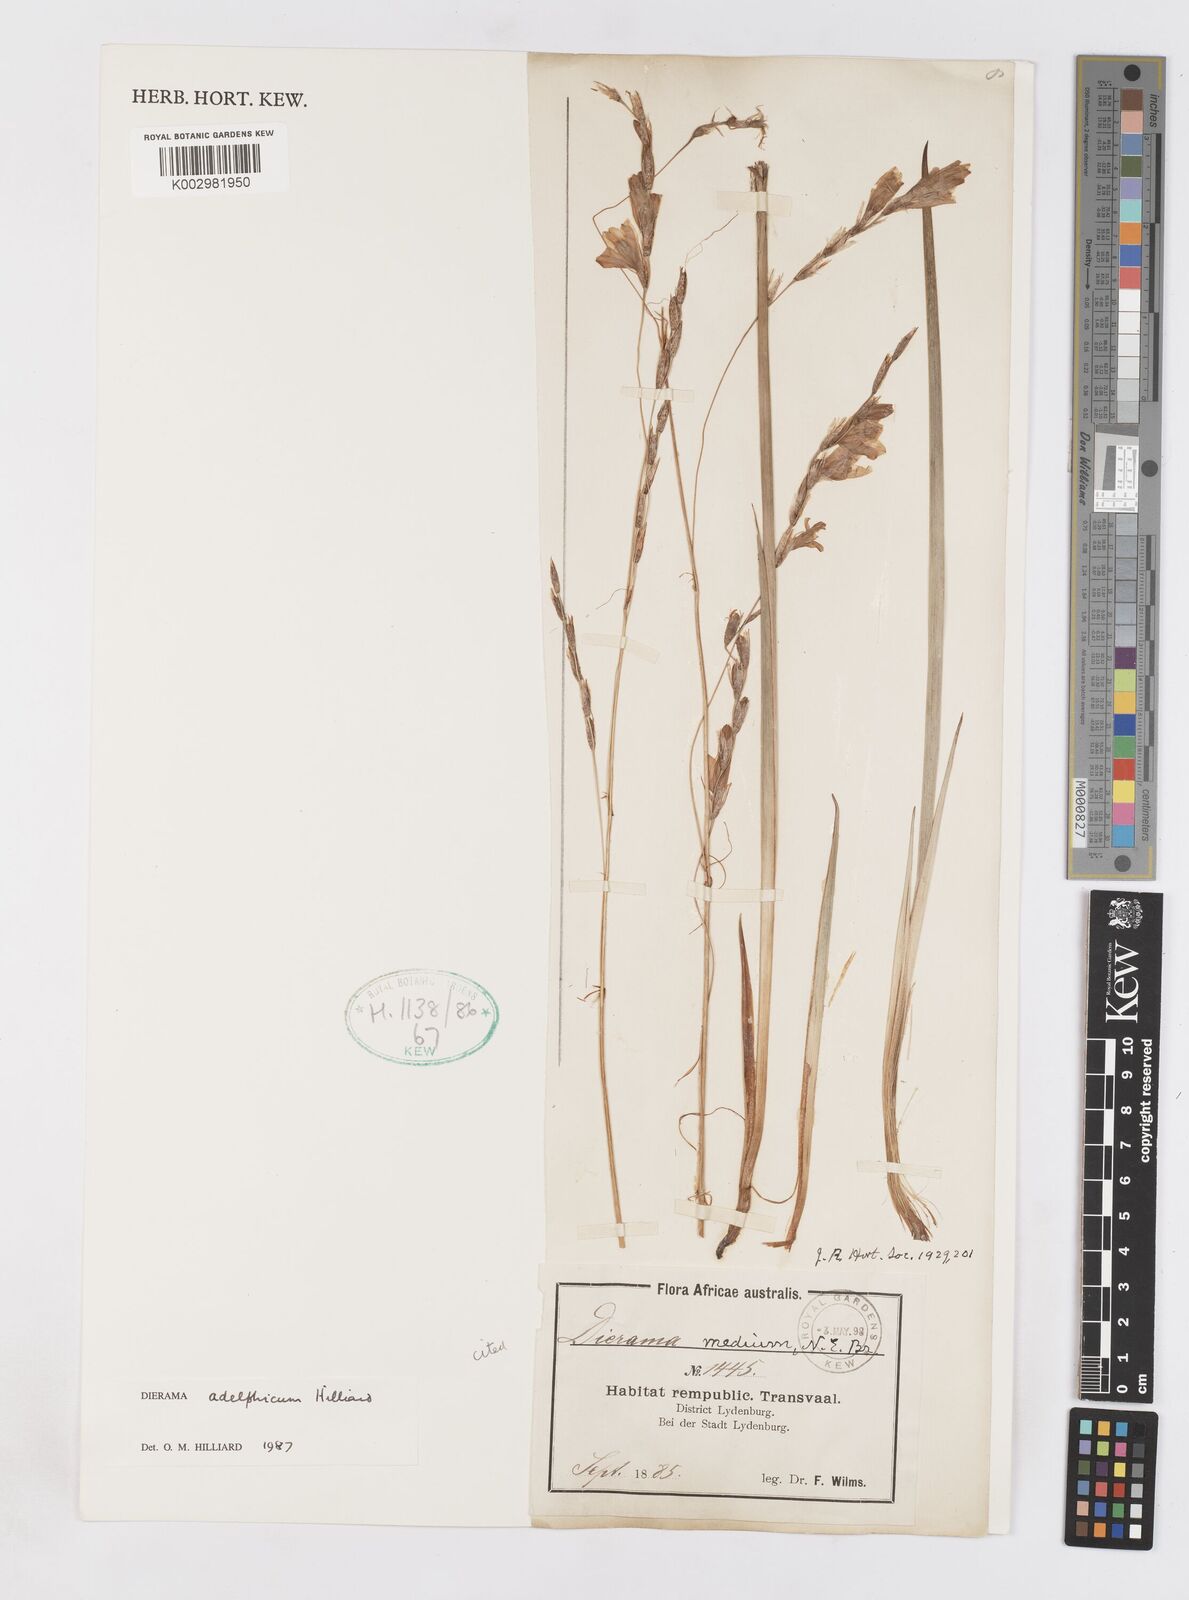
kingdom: Plantae
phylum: Tracheophyta
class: Liliopsida
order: Asparagales
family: Iridaceae
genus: Dierama
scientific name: Dierama adelphicum
